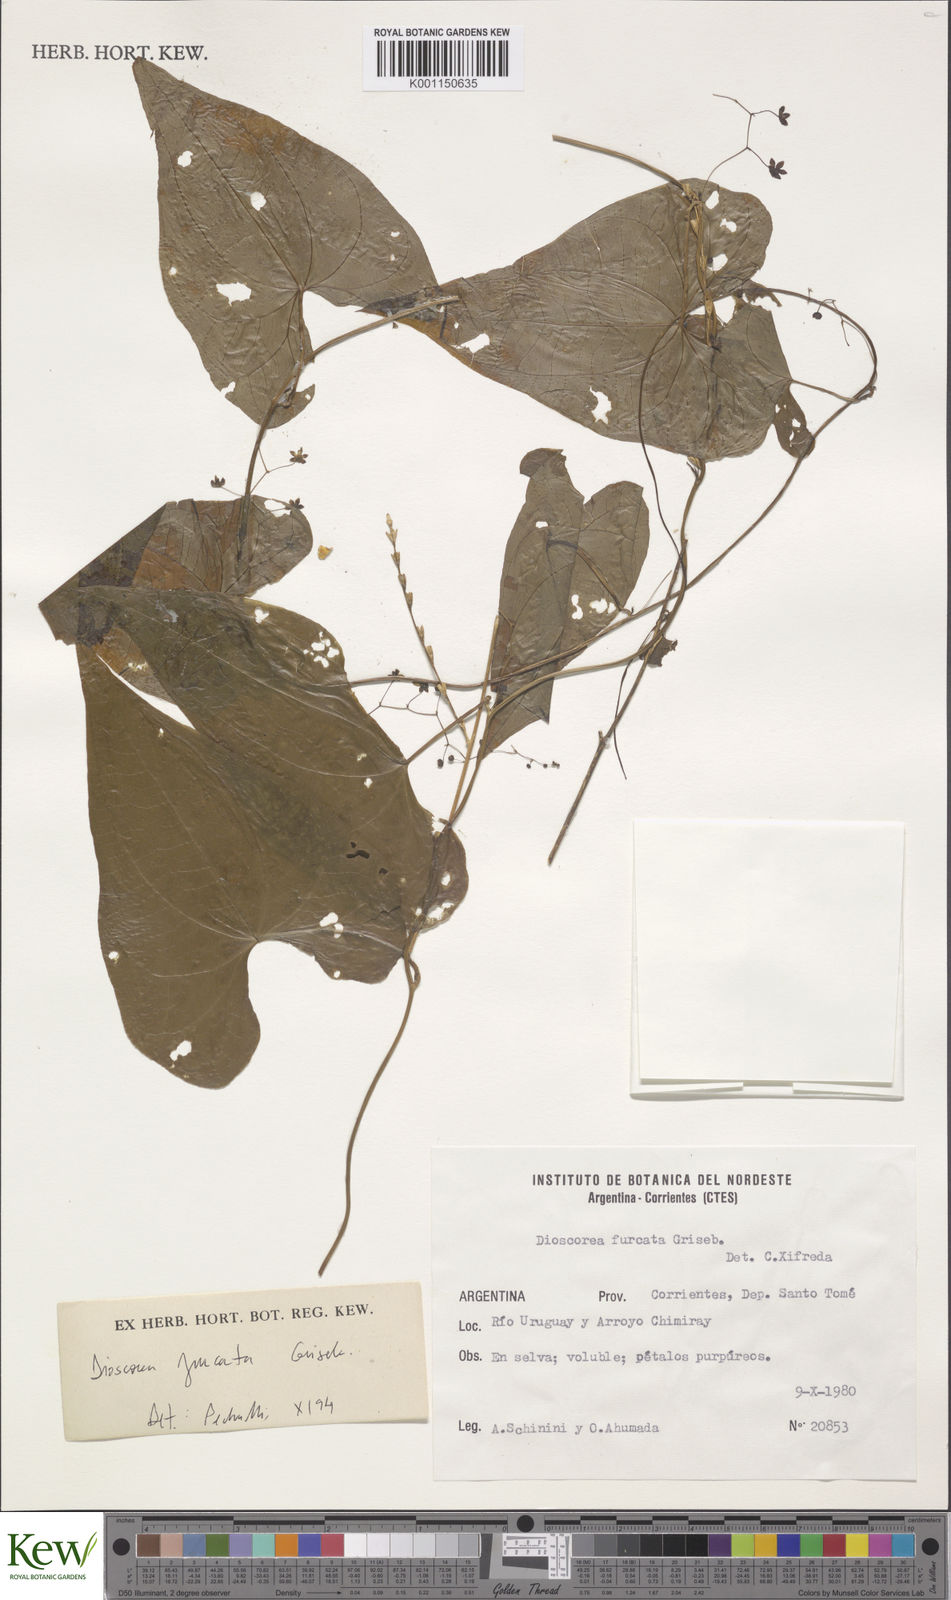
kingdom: Plantae
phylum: Tracheophyta
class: Liliopsida
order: Dioscoreales
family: Dioscoreaceae
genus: Dioscorea
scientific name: Dioscorea furcata
